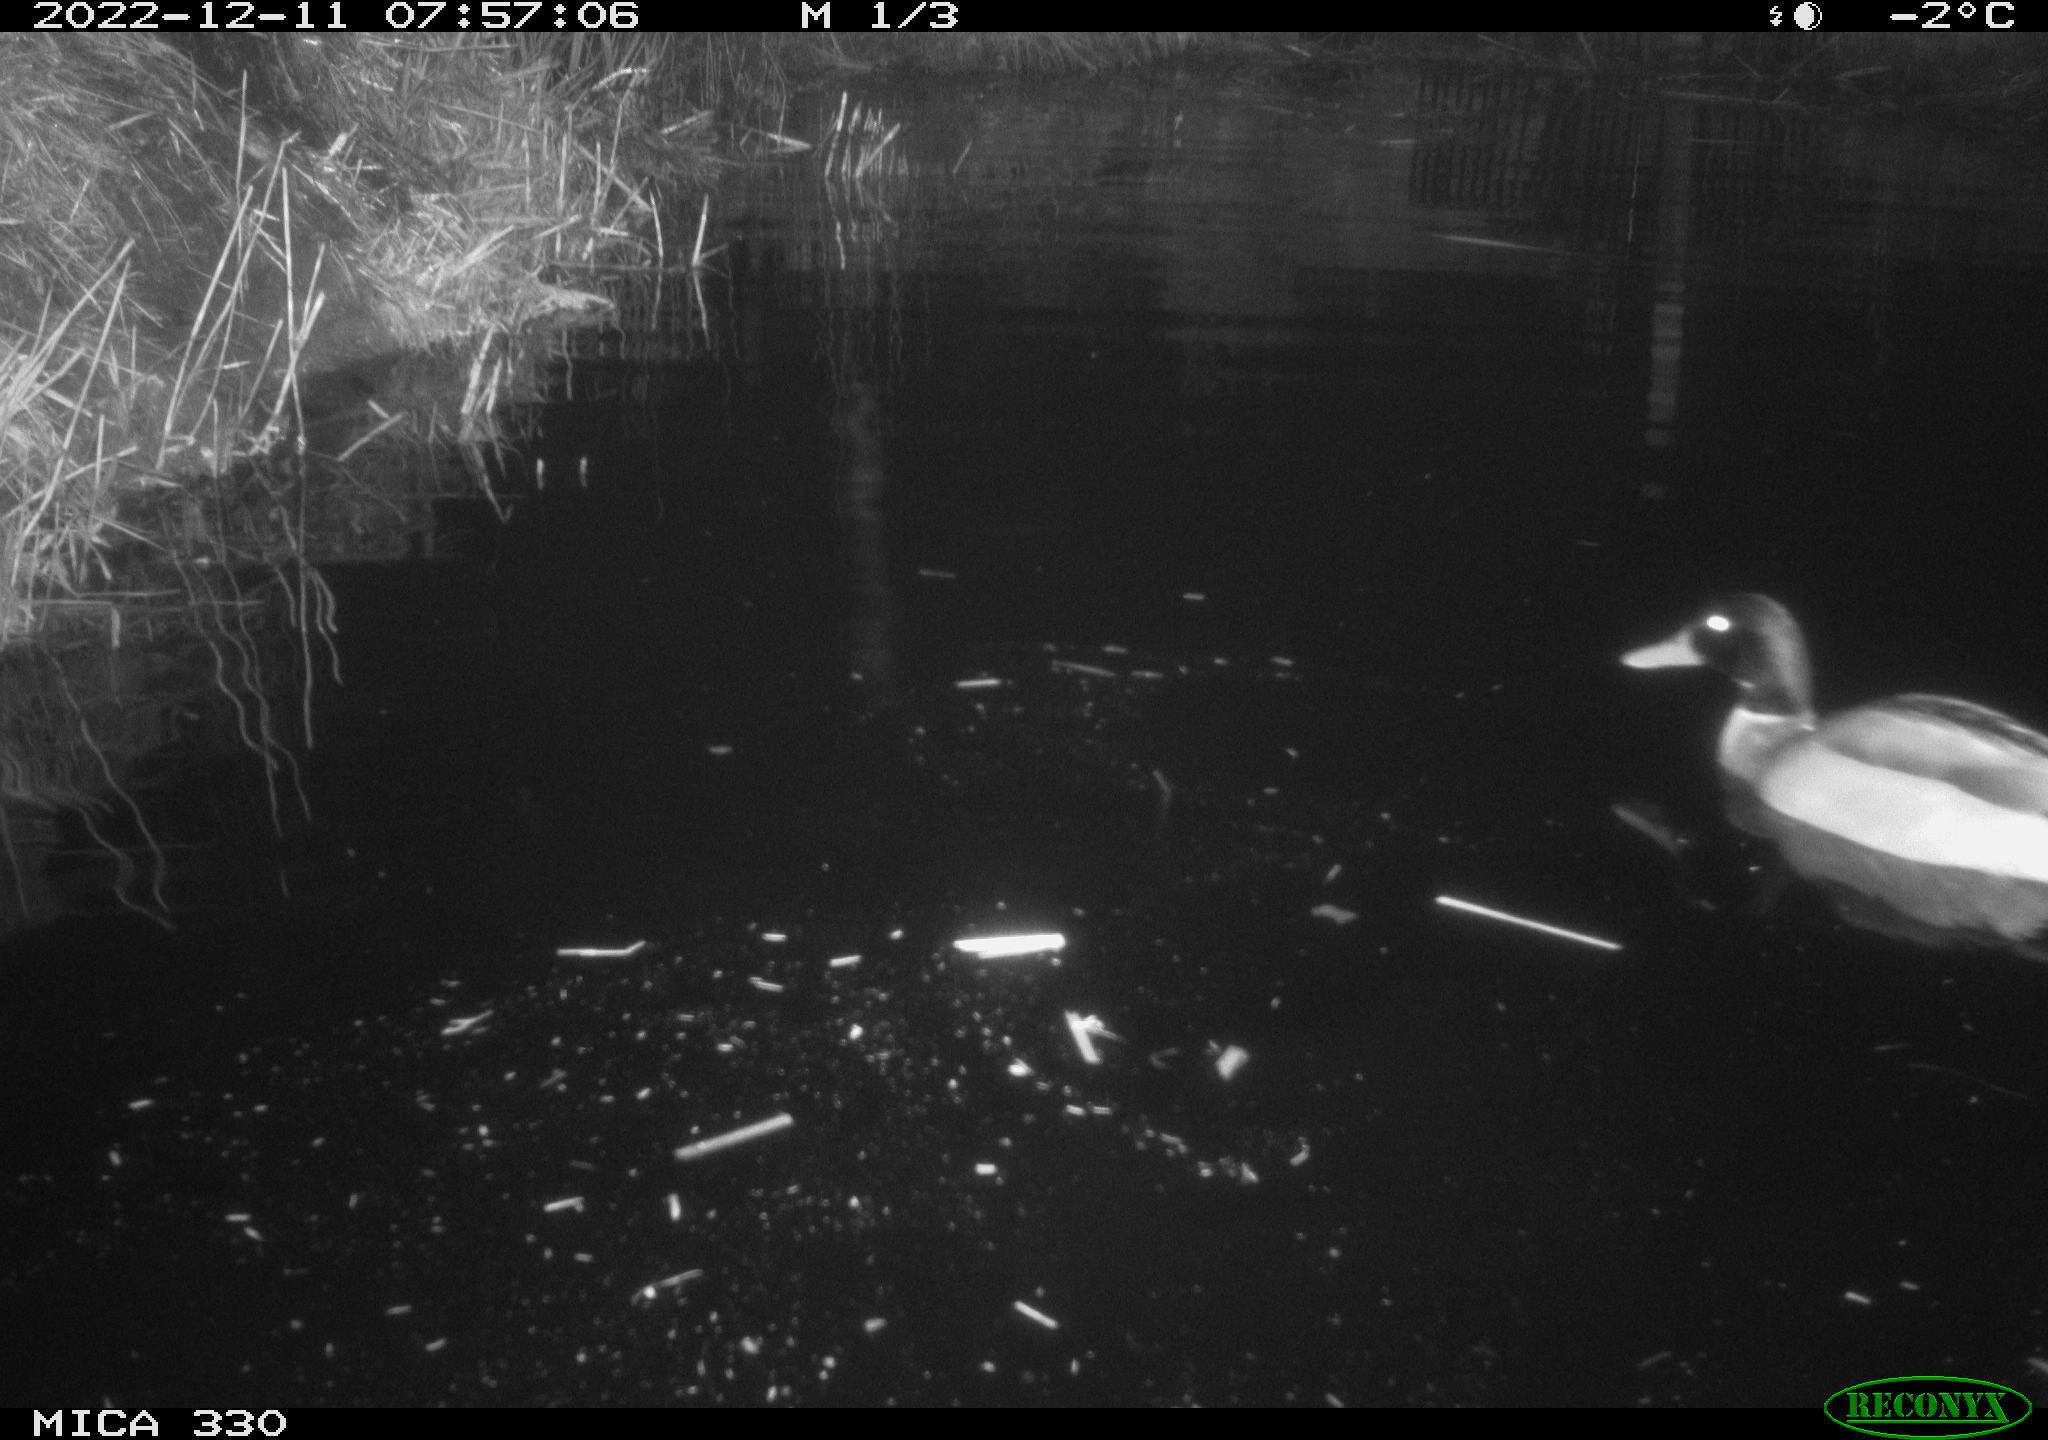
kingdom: Animalia
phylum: Chordata
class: Aves
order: Anseriformes
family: Anatidae
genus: Anas
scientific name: Anas
